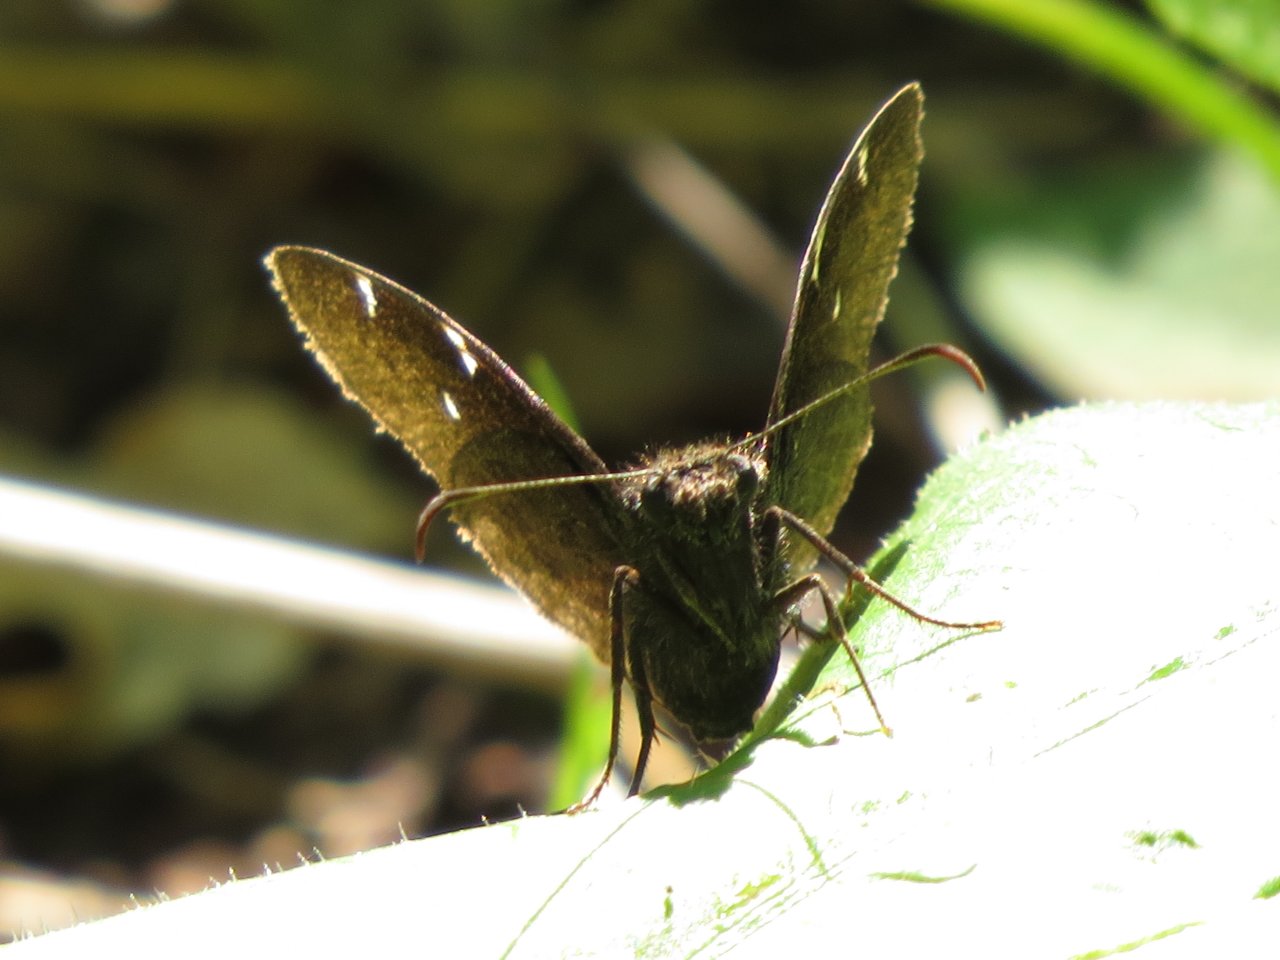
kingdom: Animalia
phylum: Arthropoda
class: Insecta
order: Lepidoptera
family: Hesperiidae
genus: Autochton
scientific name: Autochton
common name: Northern Cloudywing
